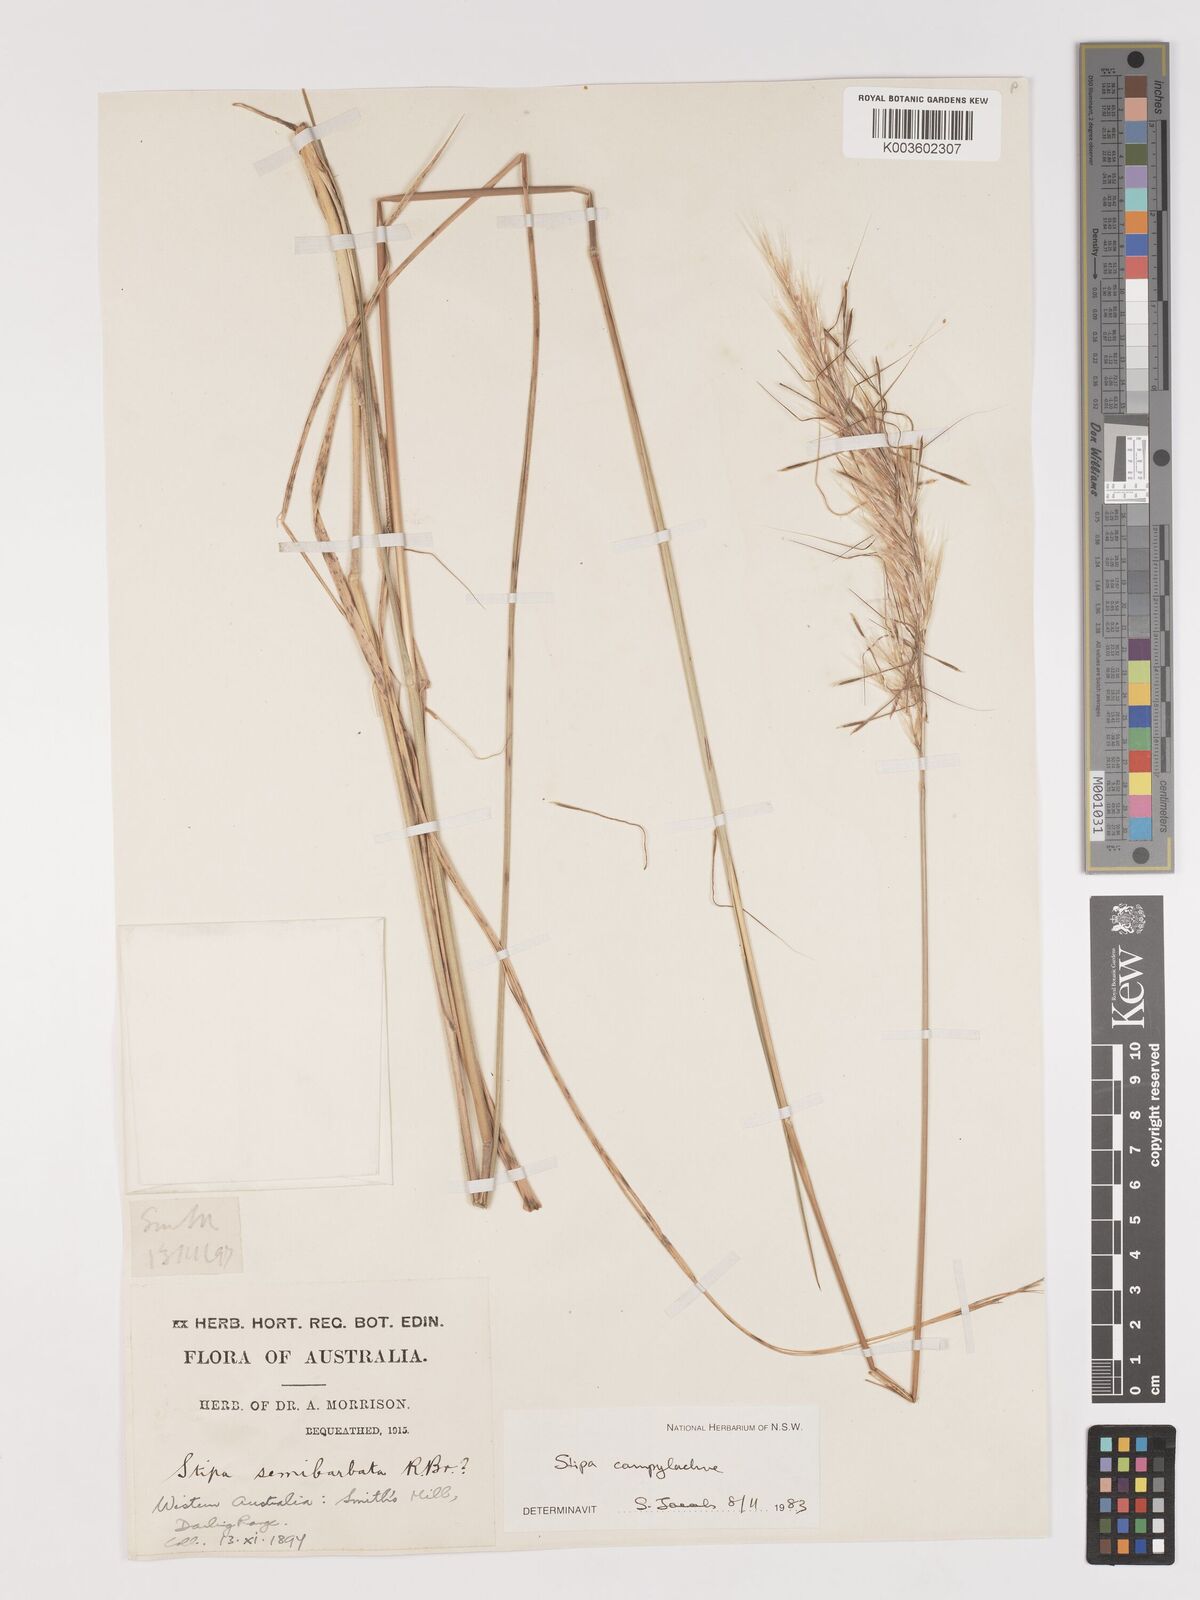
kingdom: Plantae
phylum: Tracheophyta
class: Liliopsida
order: Poales
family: Poaceae
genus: Austrostipa
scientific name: Austrostipa campylachne
